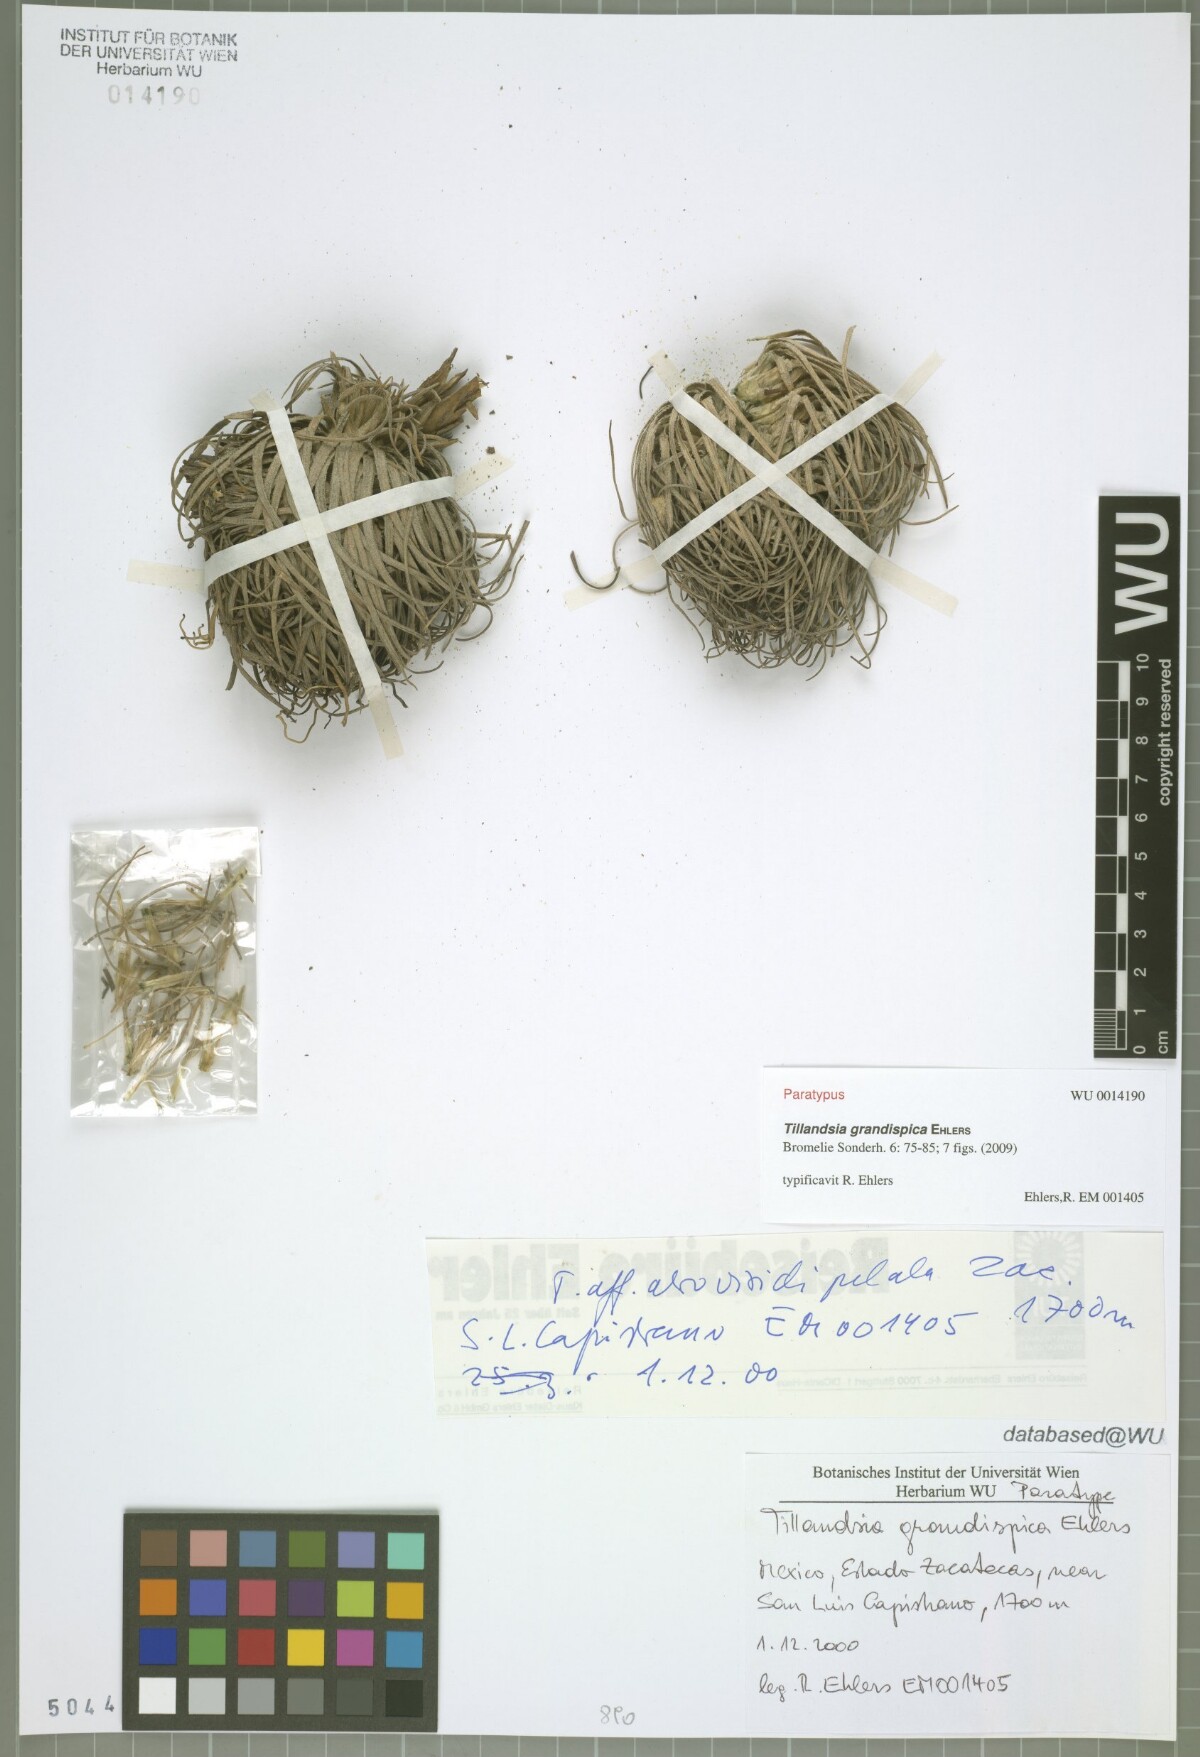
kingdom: Plantae
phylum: Tracheophyta
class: Liliopsida
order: Poales
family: Bromeliaceae
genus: Tillandsia
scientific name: Tillandsia grandispica
